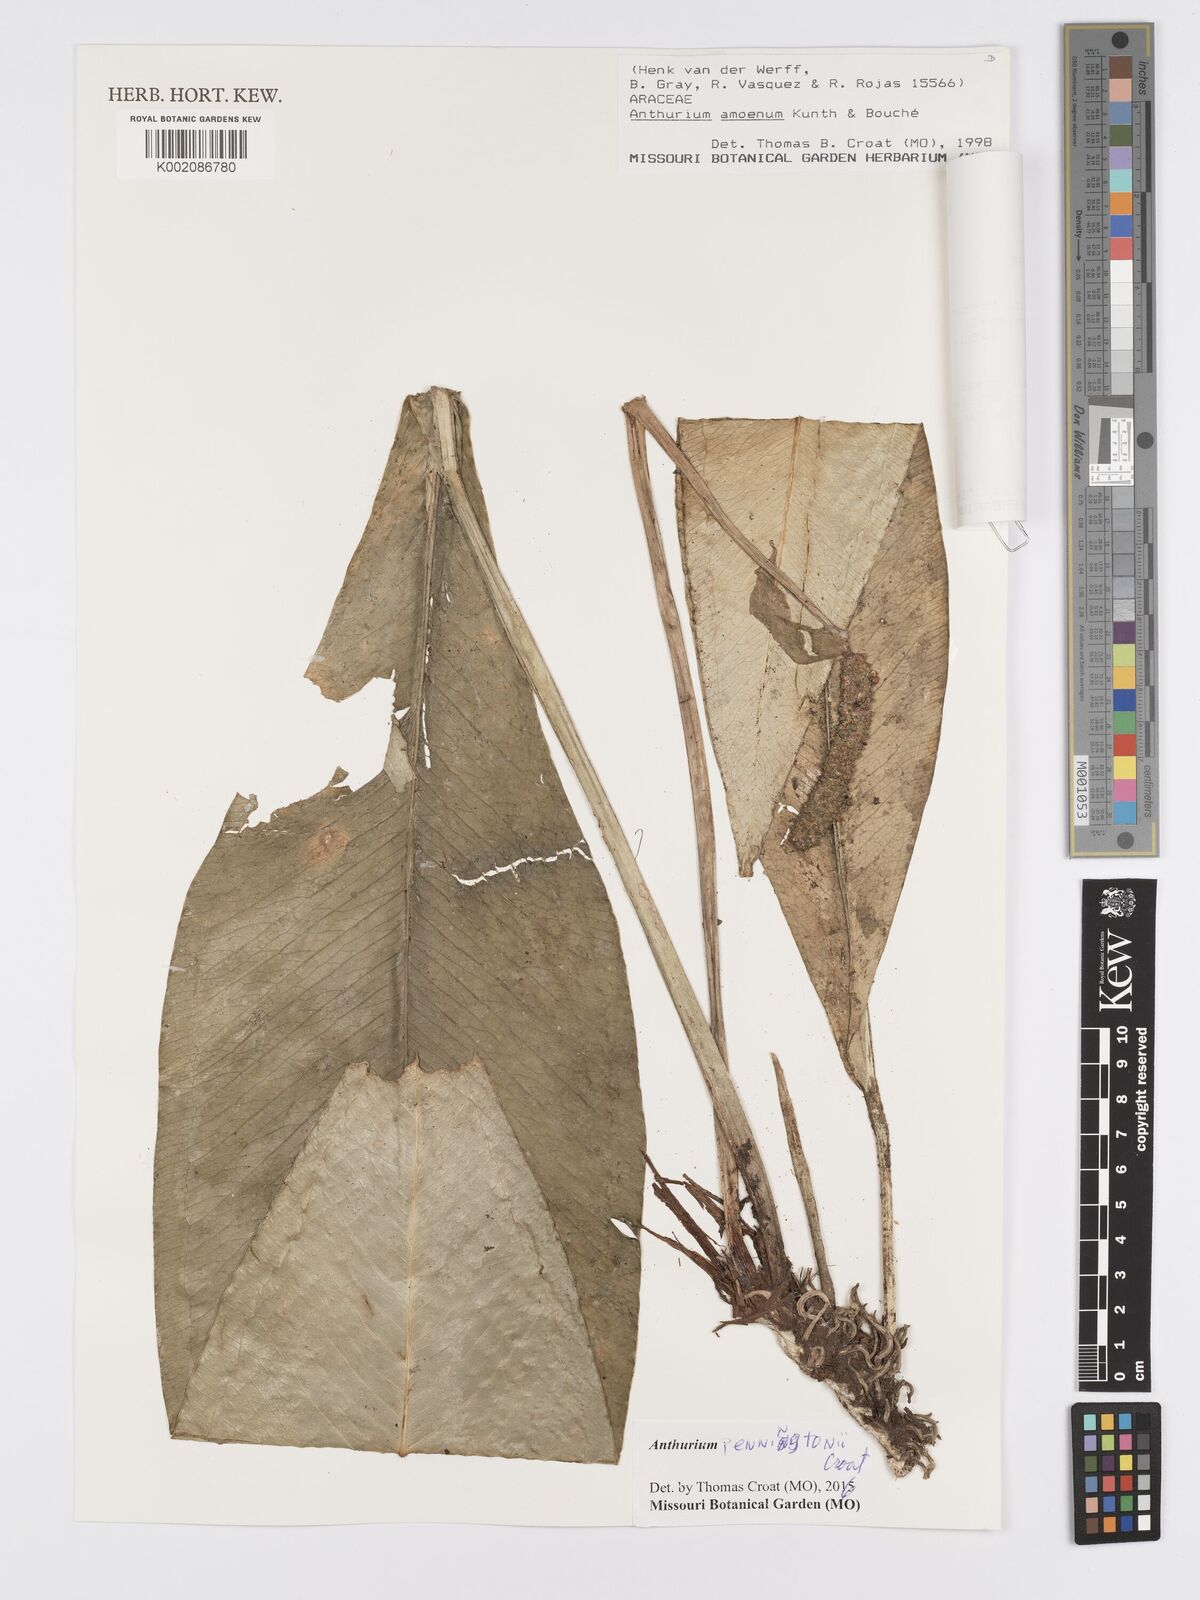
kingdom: Plantae
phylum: Tracheophyta
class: Liliopsida
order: Alismatales
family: Araceae
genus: Anthurium
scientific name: Anthurium penningtonii
